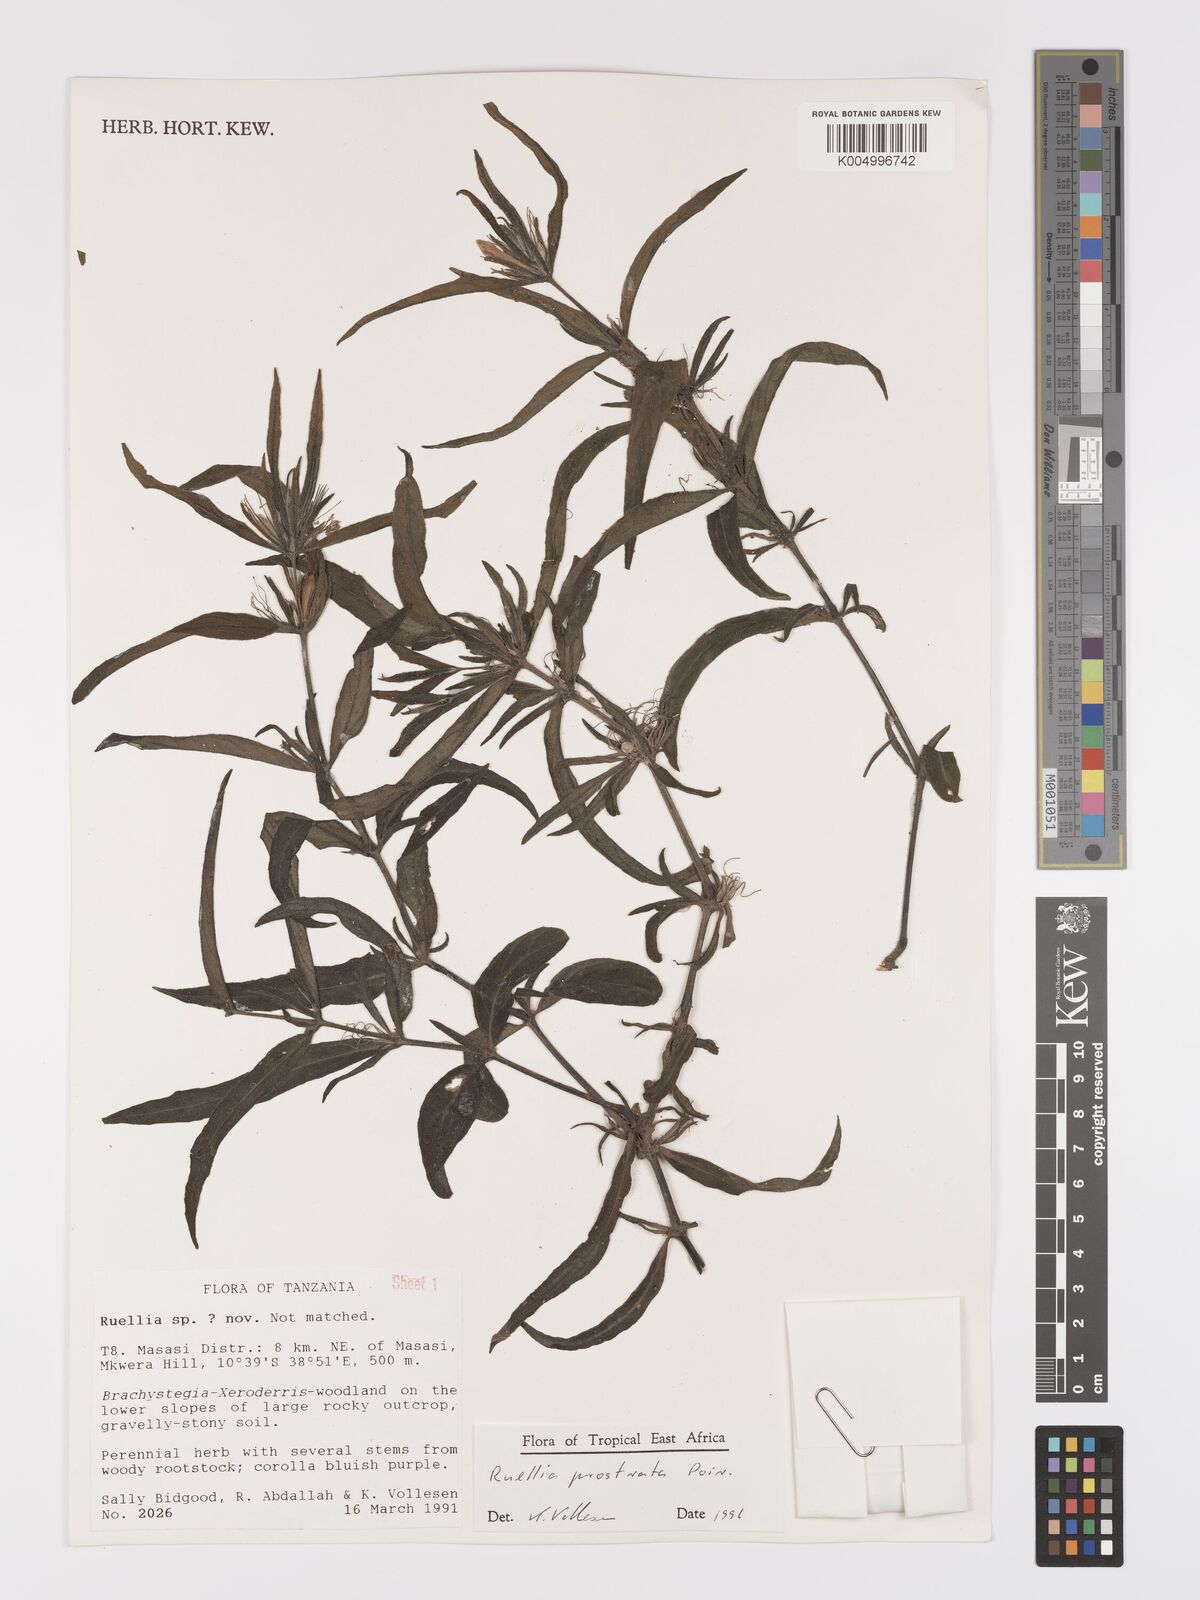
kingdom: Plantae
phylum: Tracheophyta
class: Magnoliopsida
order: Lamiales
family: Acanthaceae
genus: Ruellia
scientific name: Ruellia
